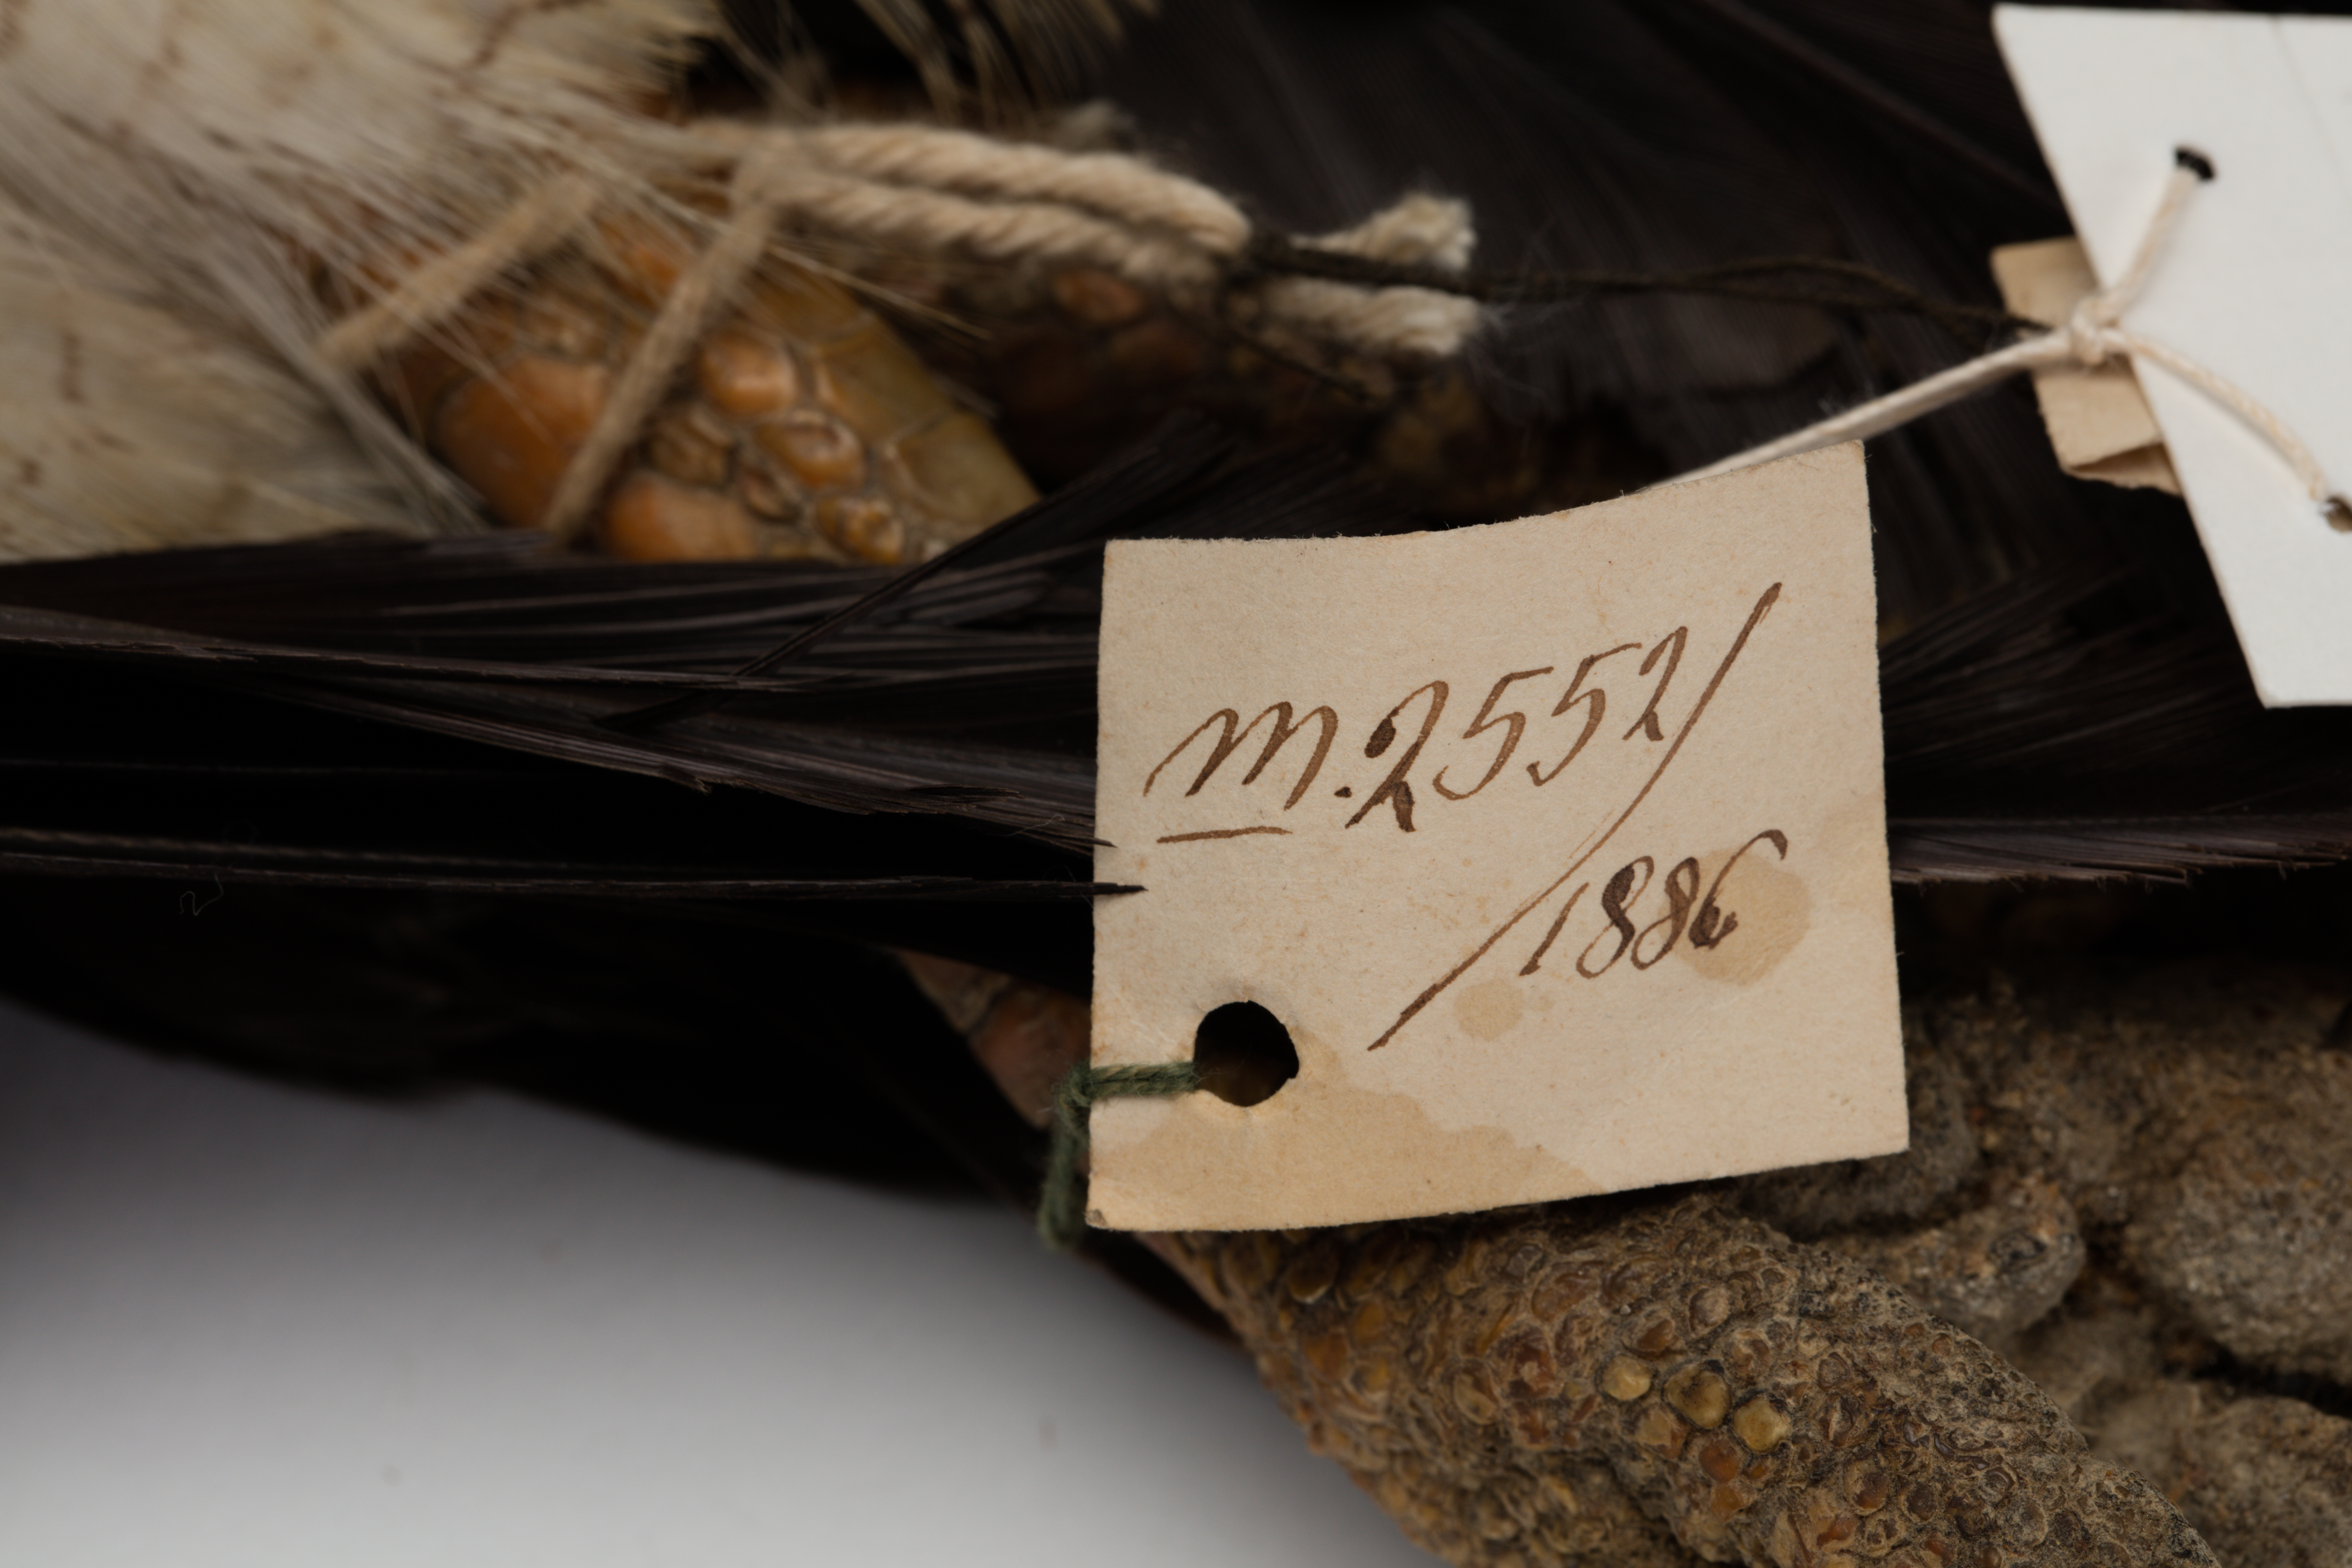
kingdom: Animalia
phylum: Chordata
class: Aves
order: Accipitriformes
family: Accipitridae
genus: Geranoaetus
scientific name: Geranoaetus melanoleucus
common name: Black-chested buzzard-eagle
